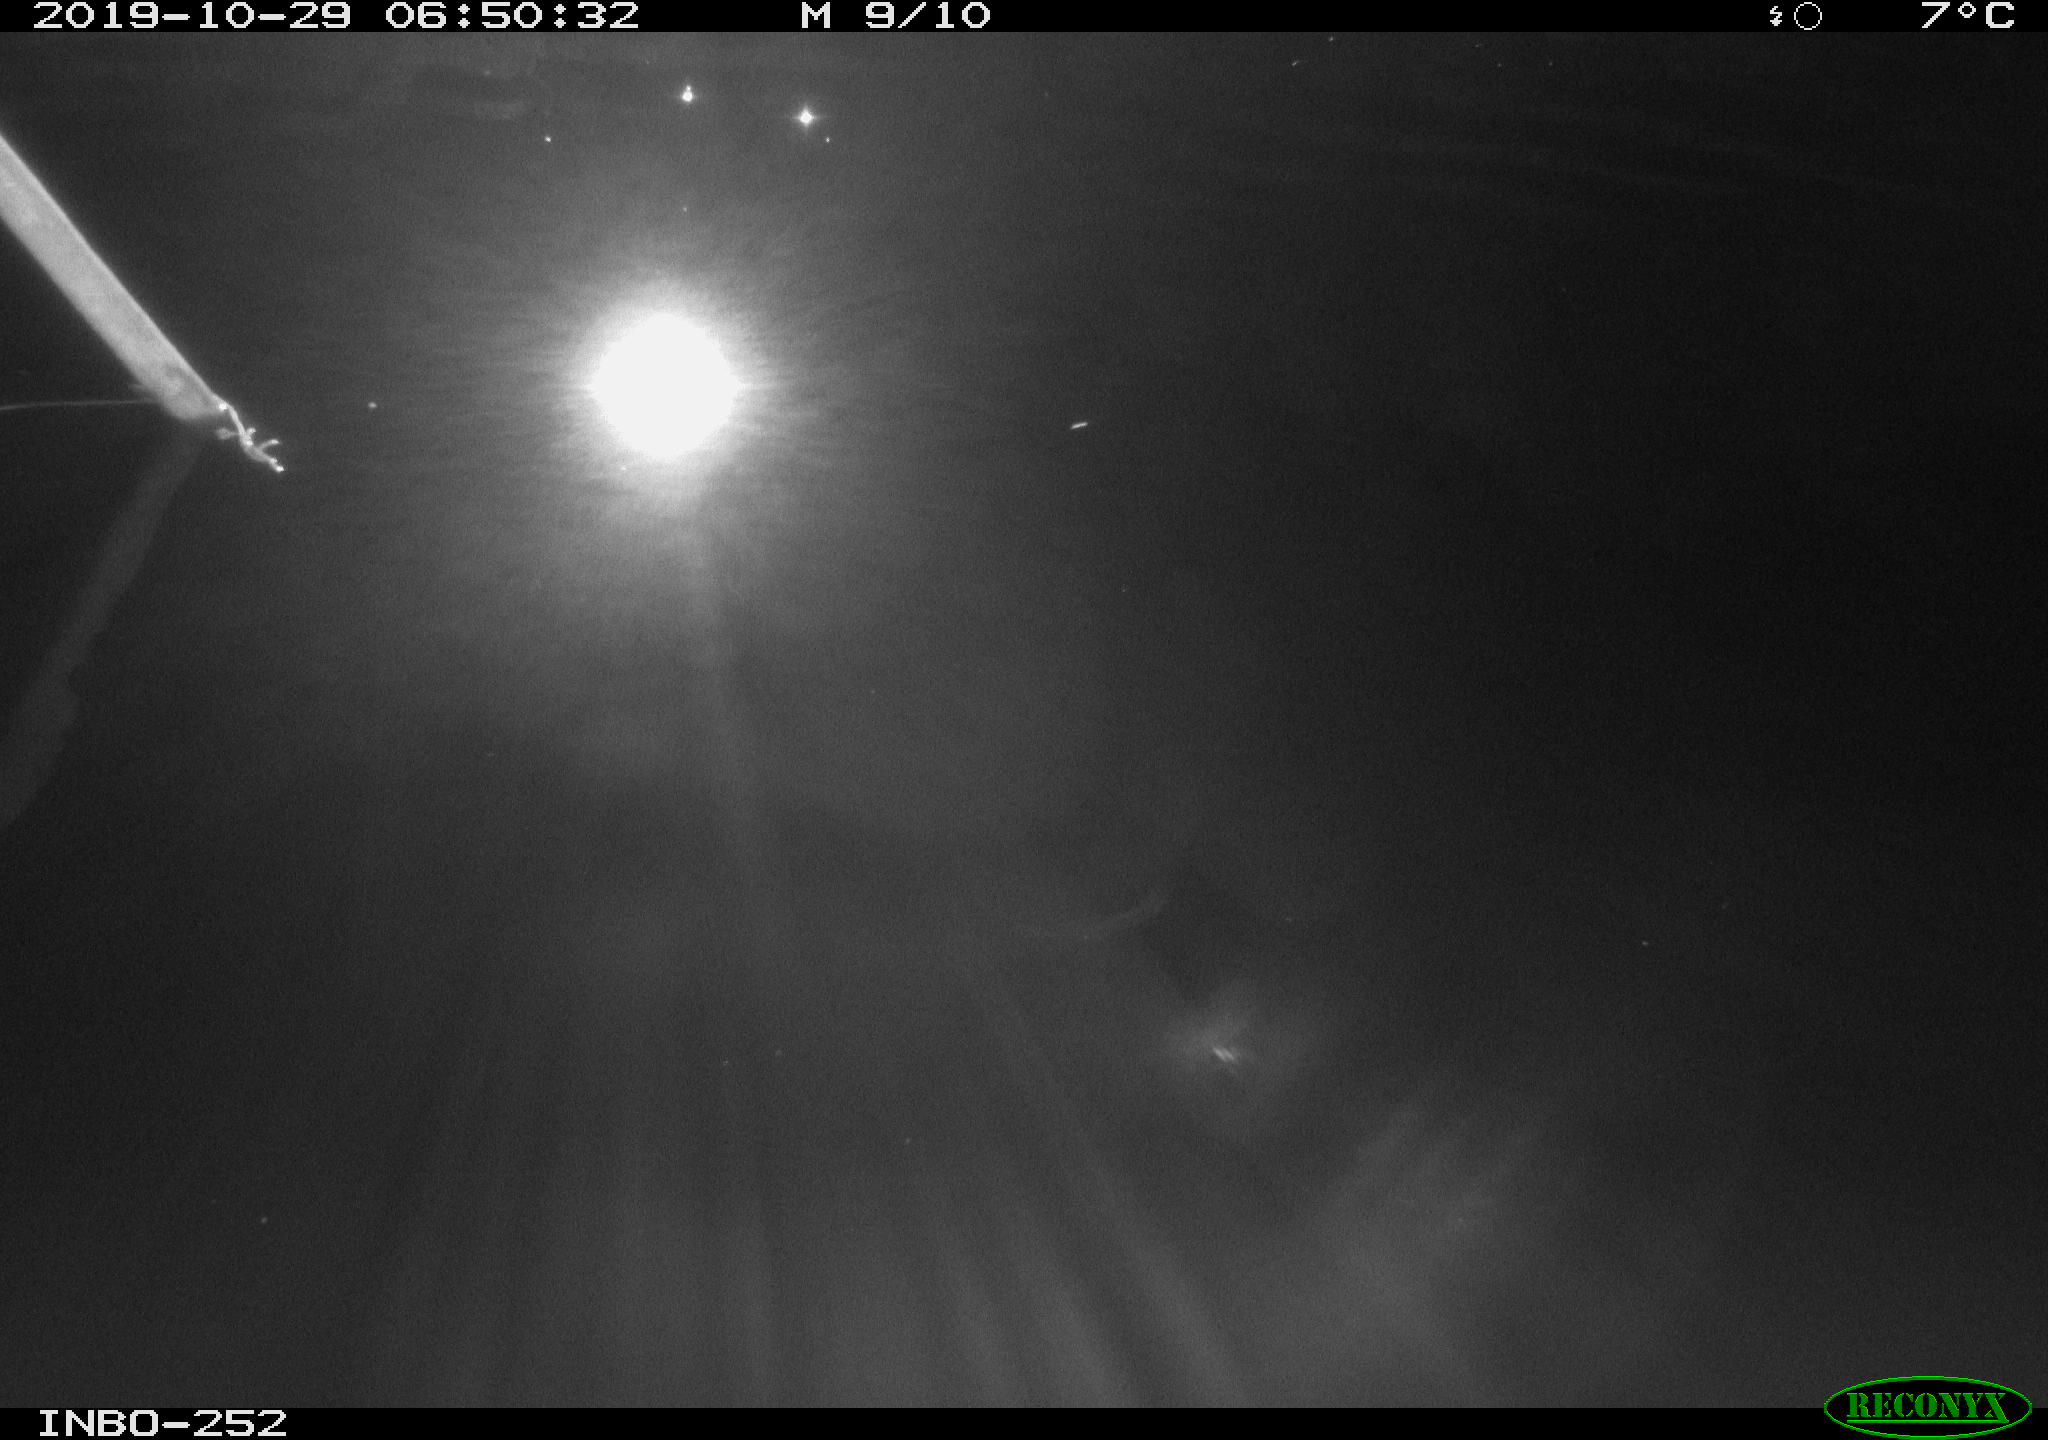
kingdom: Animalia
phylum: Chordata
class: Aves
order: Anseriformes
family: Anatidae
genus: Anas
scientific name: Anas platyrhynchos
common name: Mallard
